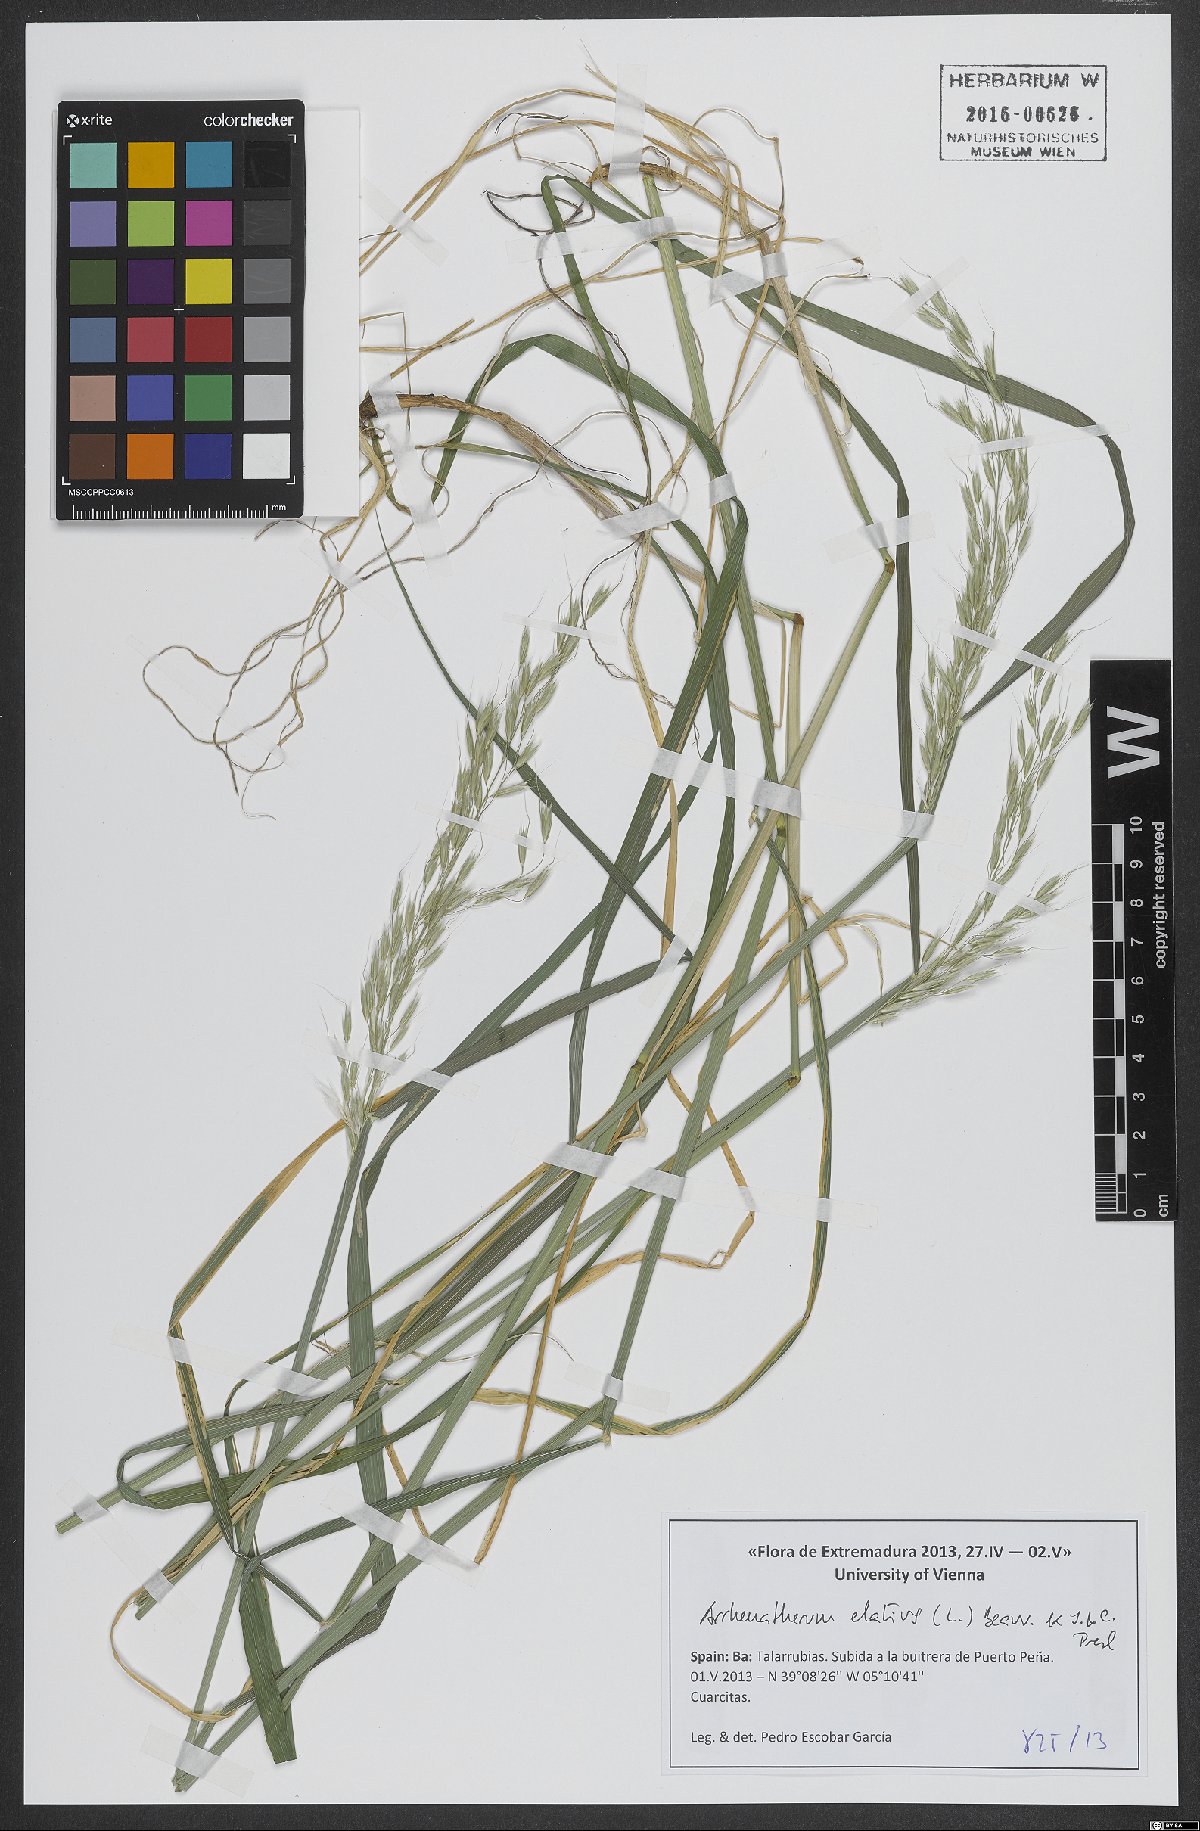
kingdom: Plantae
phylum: Tracheophyta
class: Liliopsida
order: Poales
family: Poaceae
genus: Arrhenatherum
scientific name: Arrhenatherum elatius
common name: Tall oatgrass
